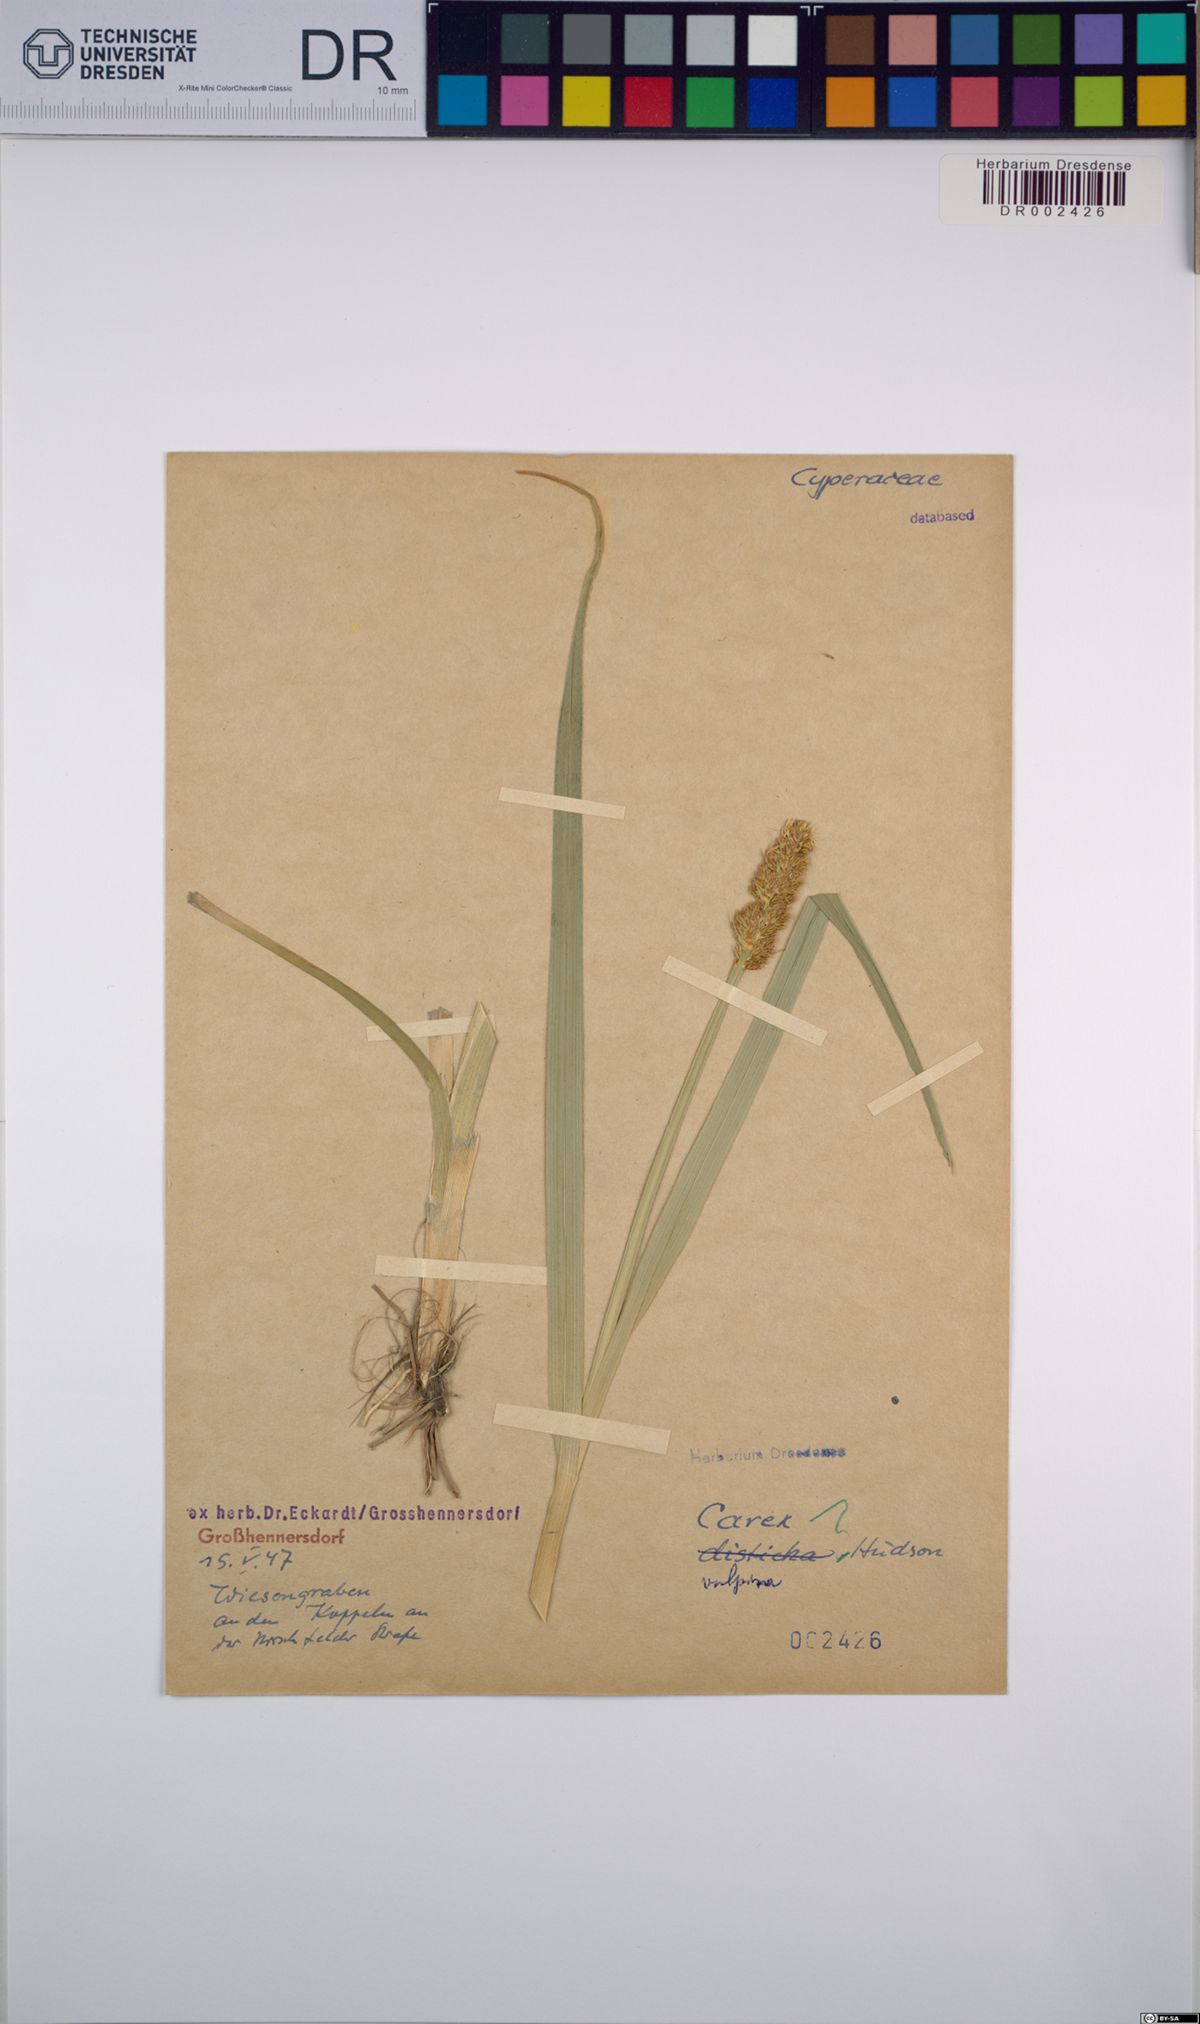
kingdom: Plantae
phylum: Tracheophyta
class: Liliopsida
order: Poales
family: Cyperaceae
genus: Carex
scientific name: Carex vulpina
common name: True fox-sedge
